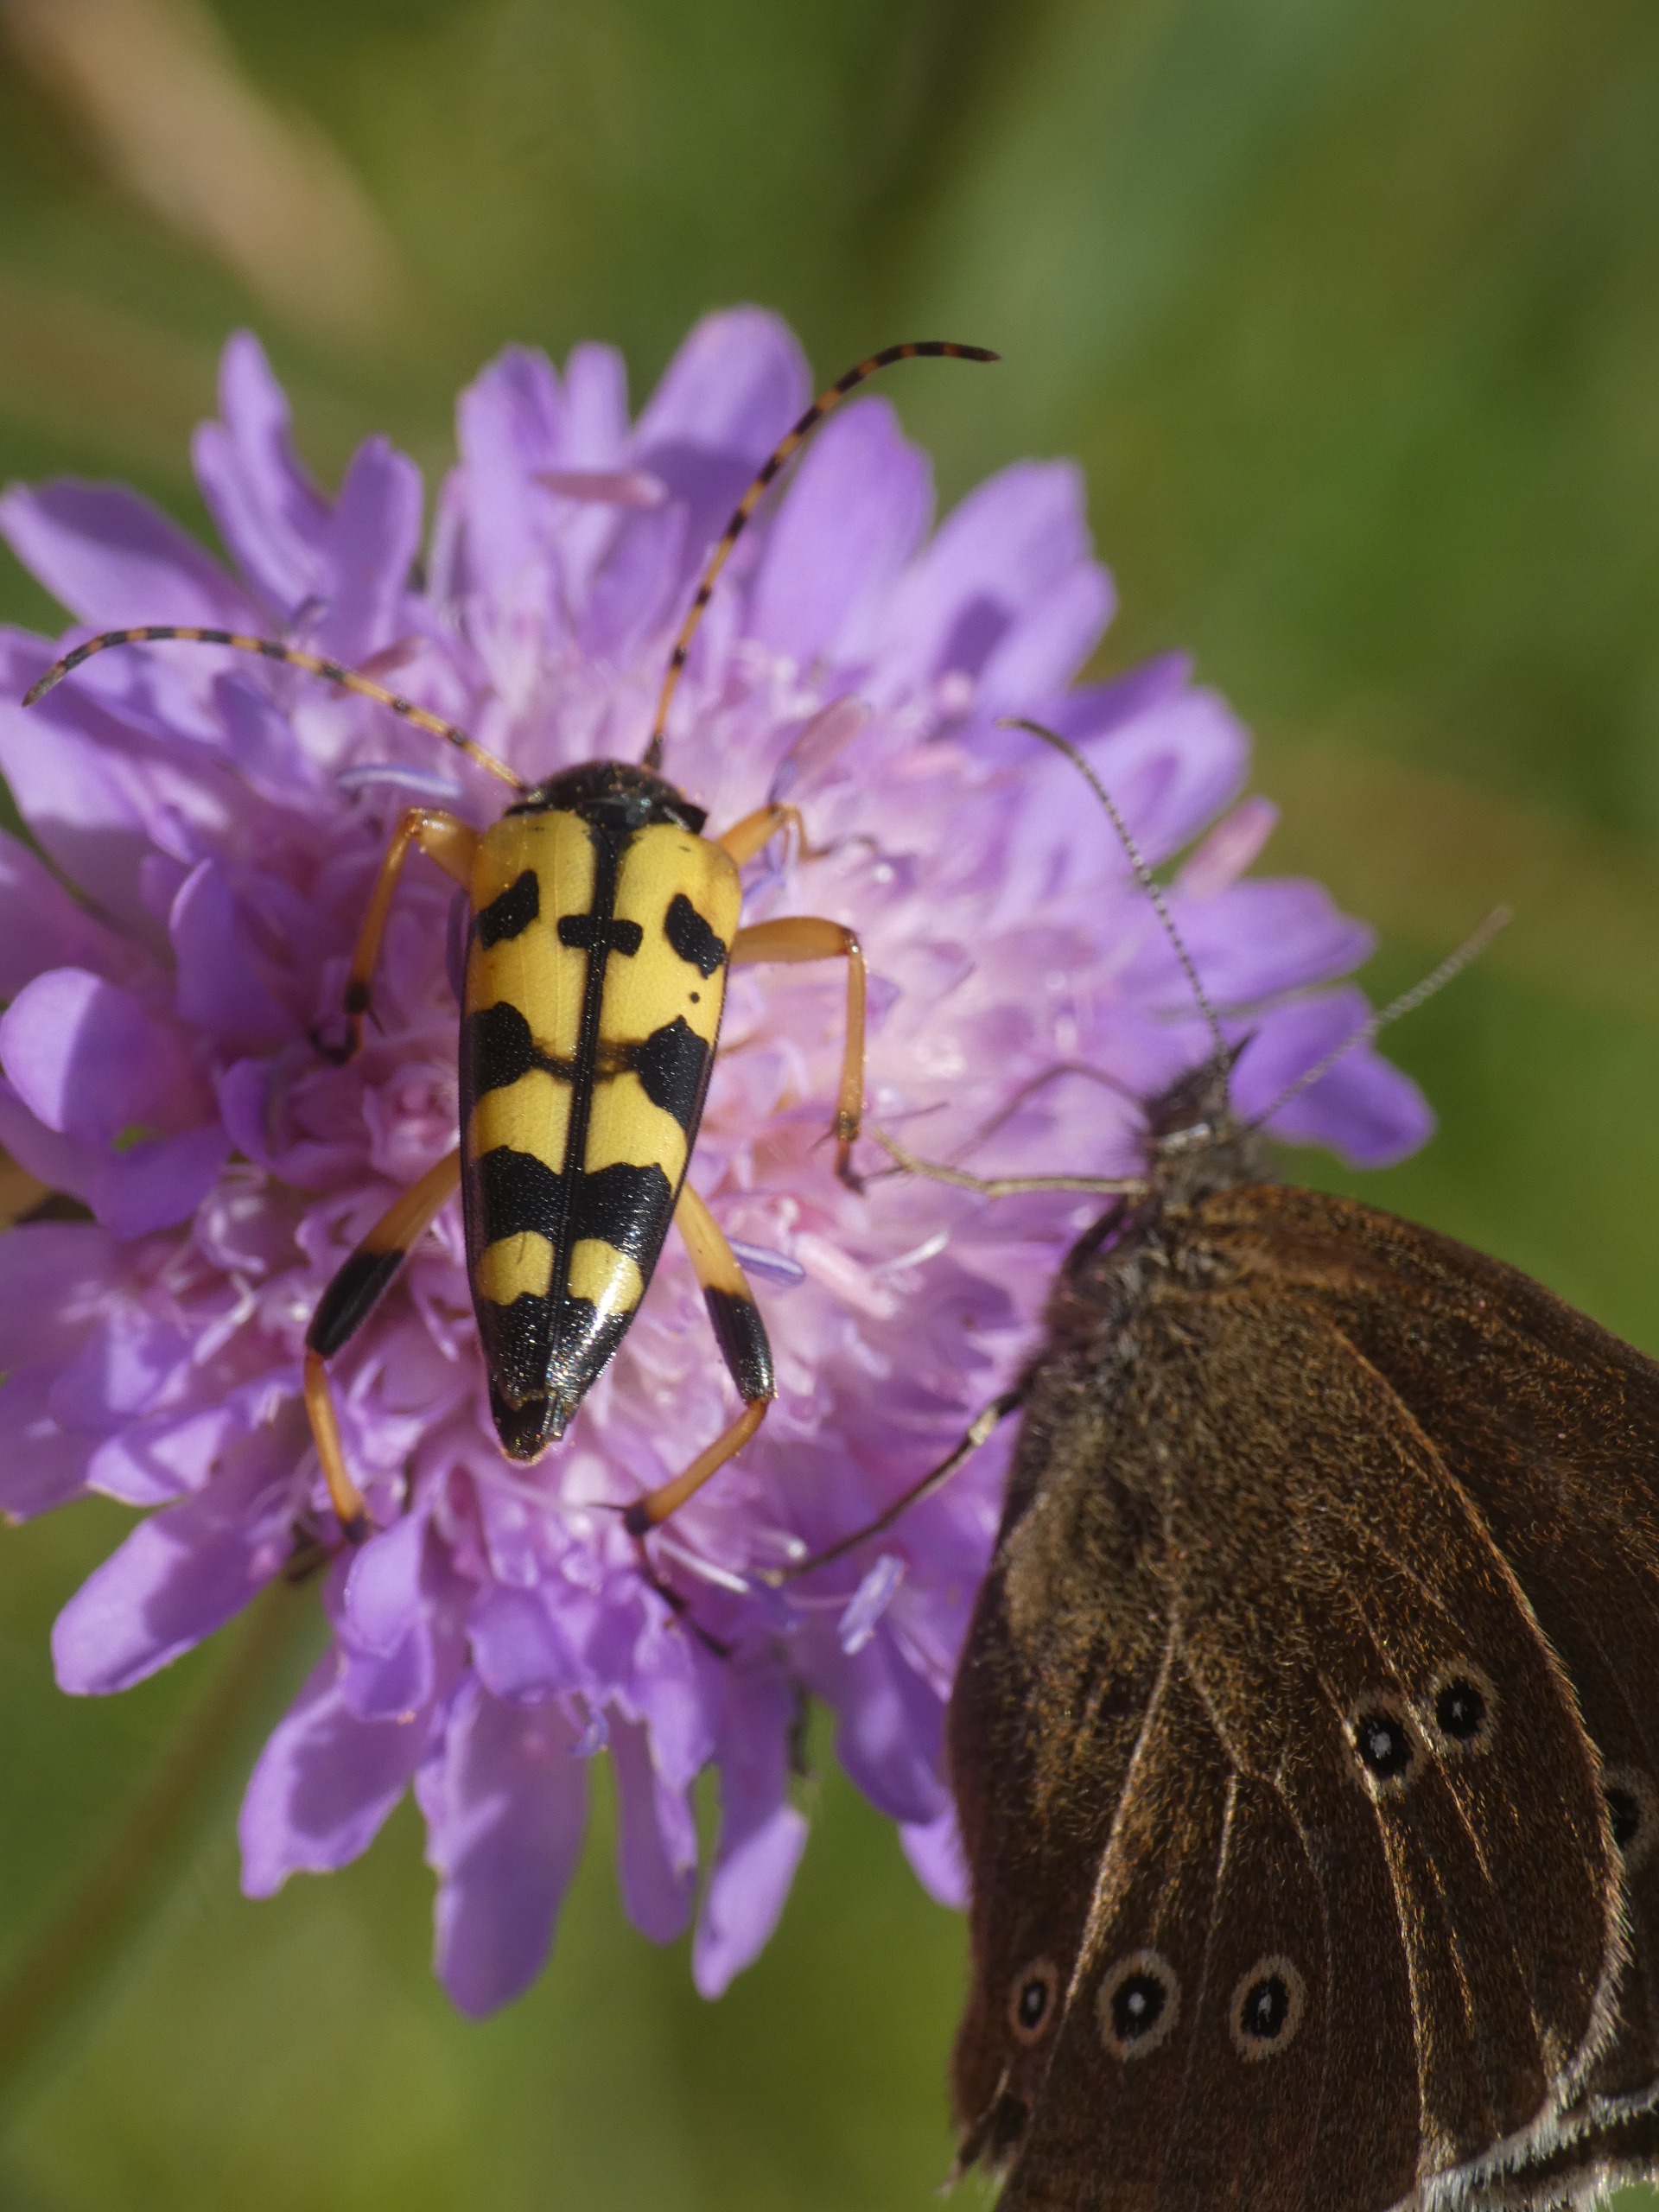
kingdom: Animalia
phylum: Arthropoda
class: Insecta
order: Lepidoptera
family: Nymphalidae
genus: Aphantopus
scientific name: Aphantopus hyperantus
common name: Engrandøje
